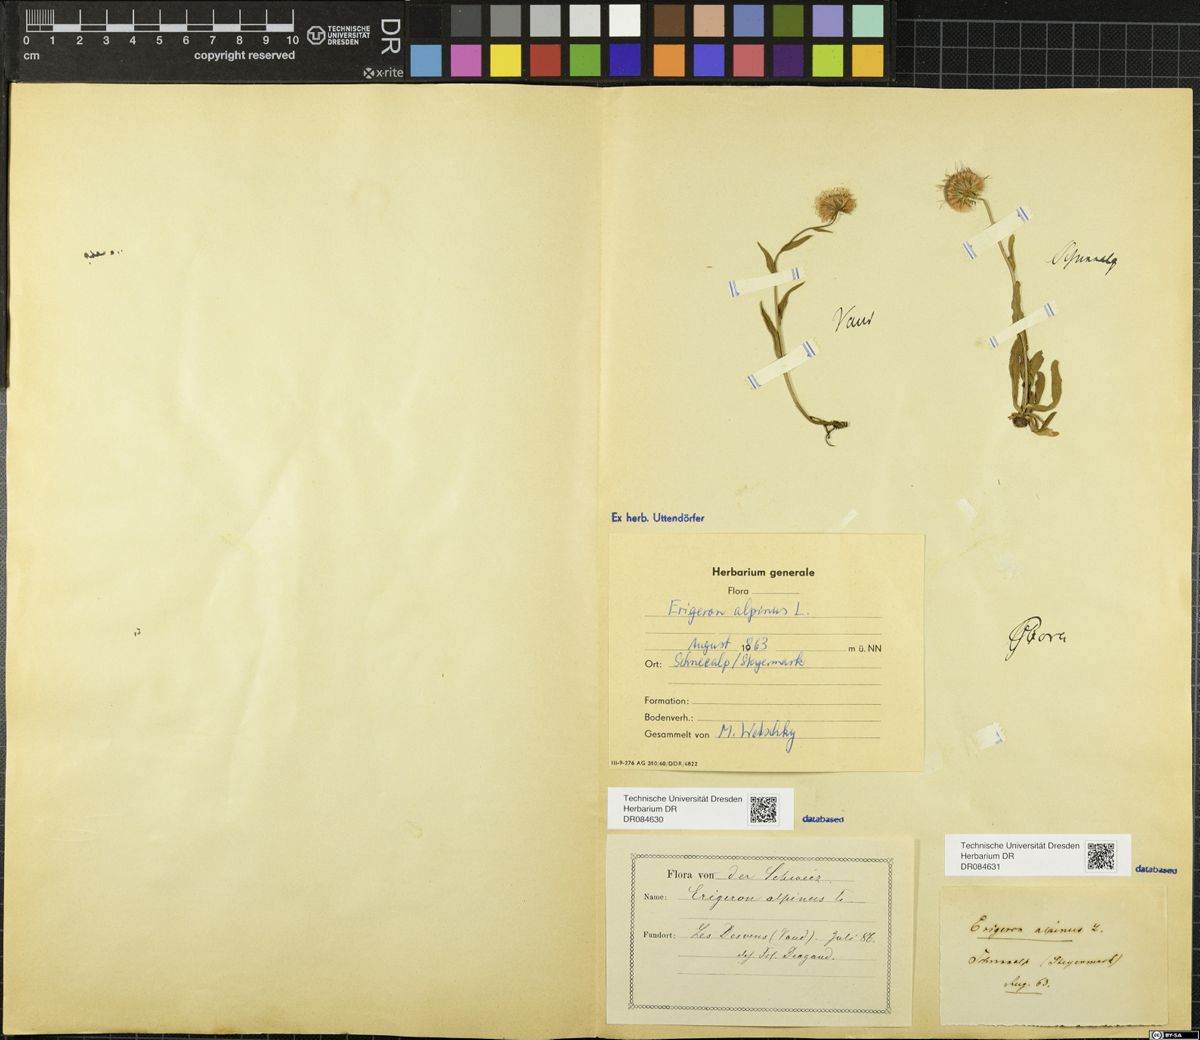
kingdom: Plantae
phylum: Tracheophyta
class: Magnoliopsida
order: Asterales
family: Asteraceae
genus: Erigeron
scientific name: Erigeron alpinus
